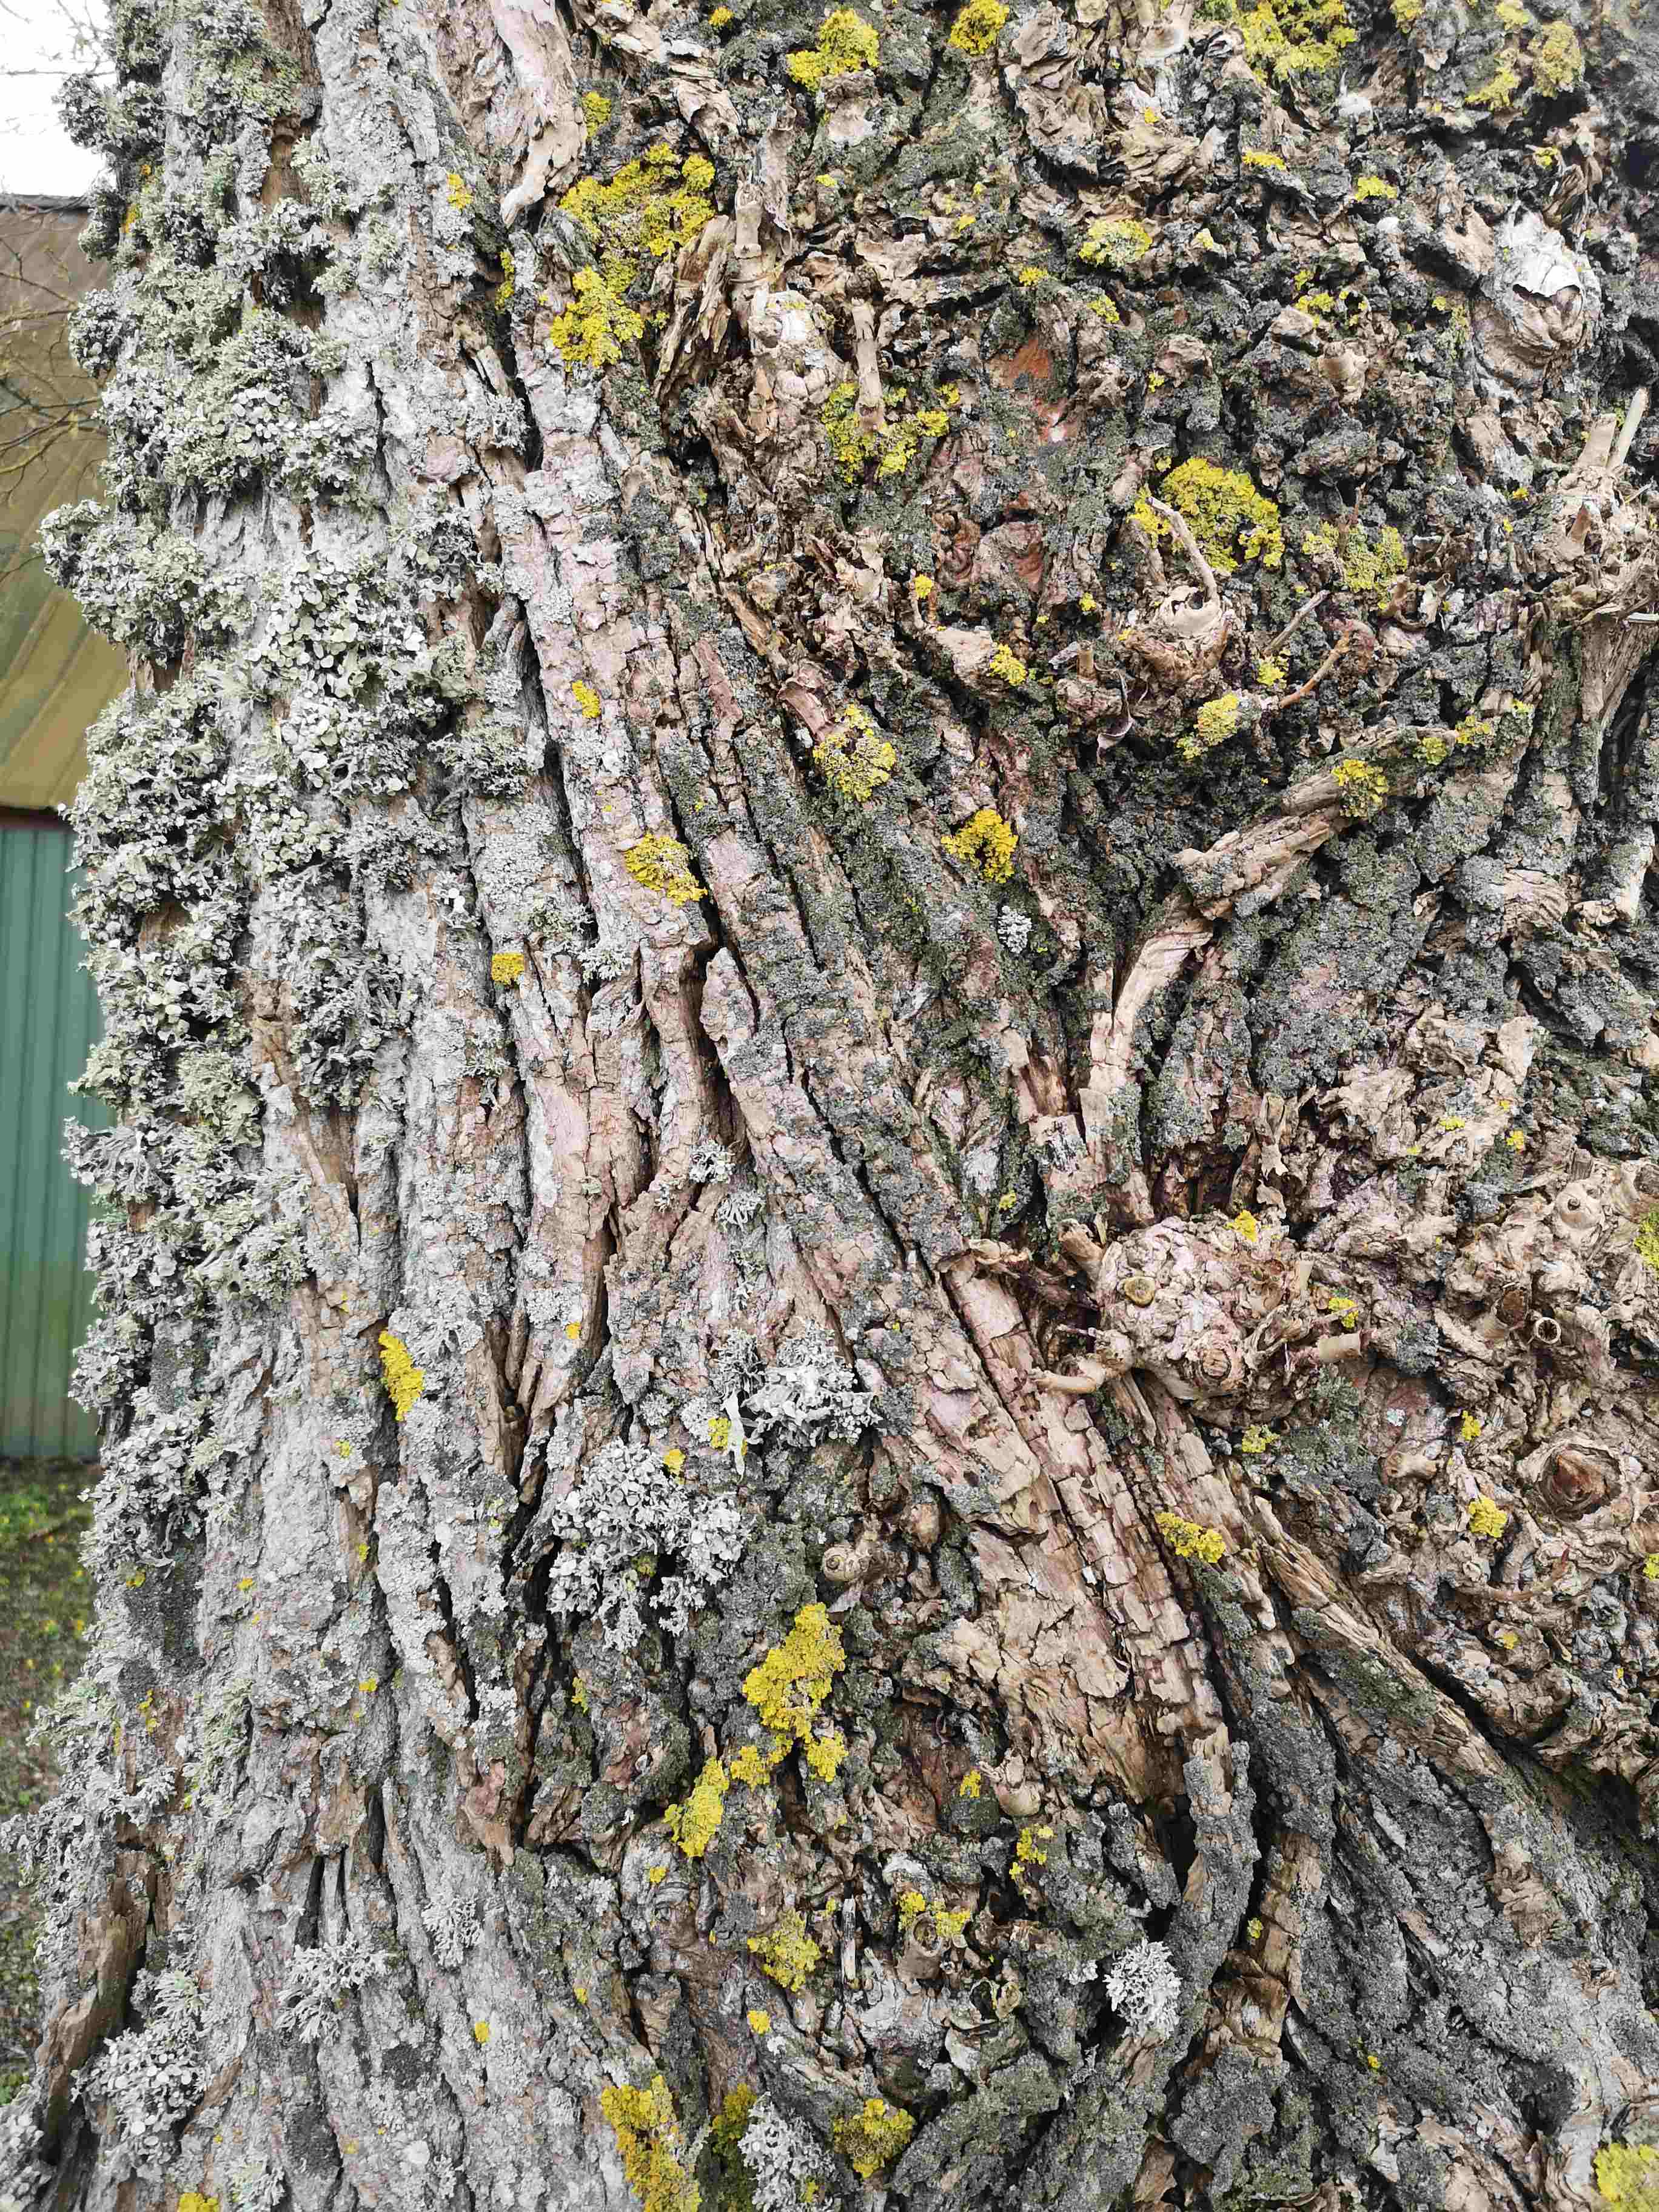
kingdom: Fungi
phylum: Ascomycota
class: Lecanoromycetes
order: Lecanorales
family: Ramalinaceae
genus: Ramalina
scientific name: Ramalina fastigiata
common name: tue-grenlav
